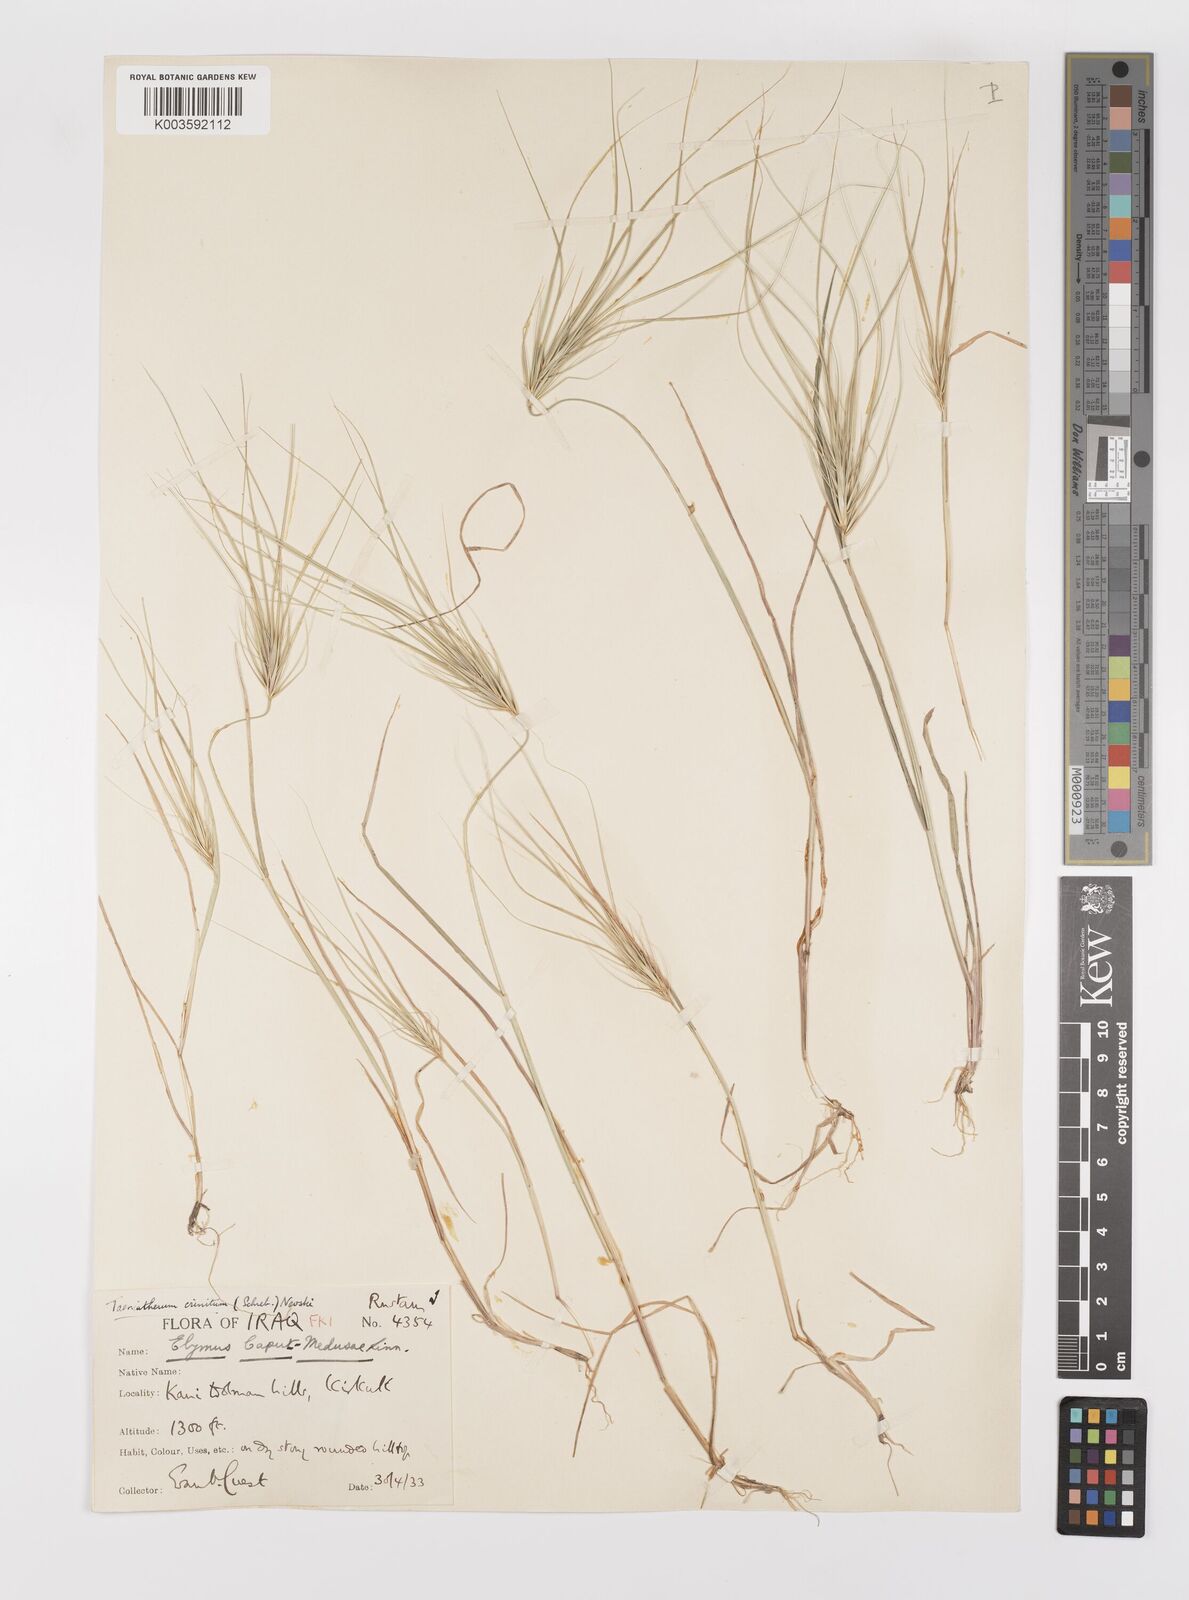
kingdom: Plantae
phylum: Tracheophyta
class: Liliopsida
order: Poales
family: Poaceae
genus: Taeniatherum
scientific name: Taeniatherum caput-medusae
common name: Medusahead
